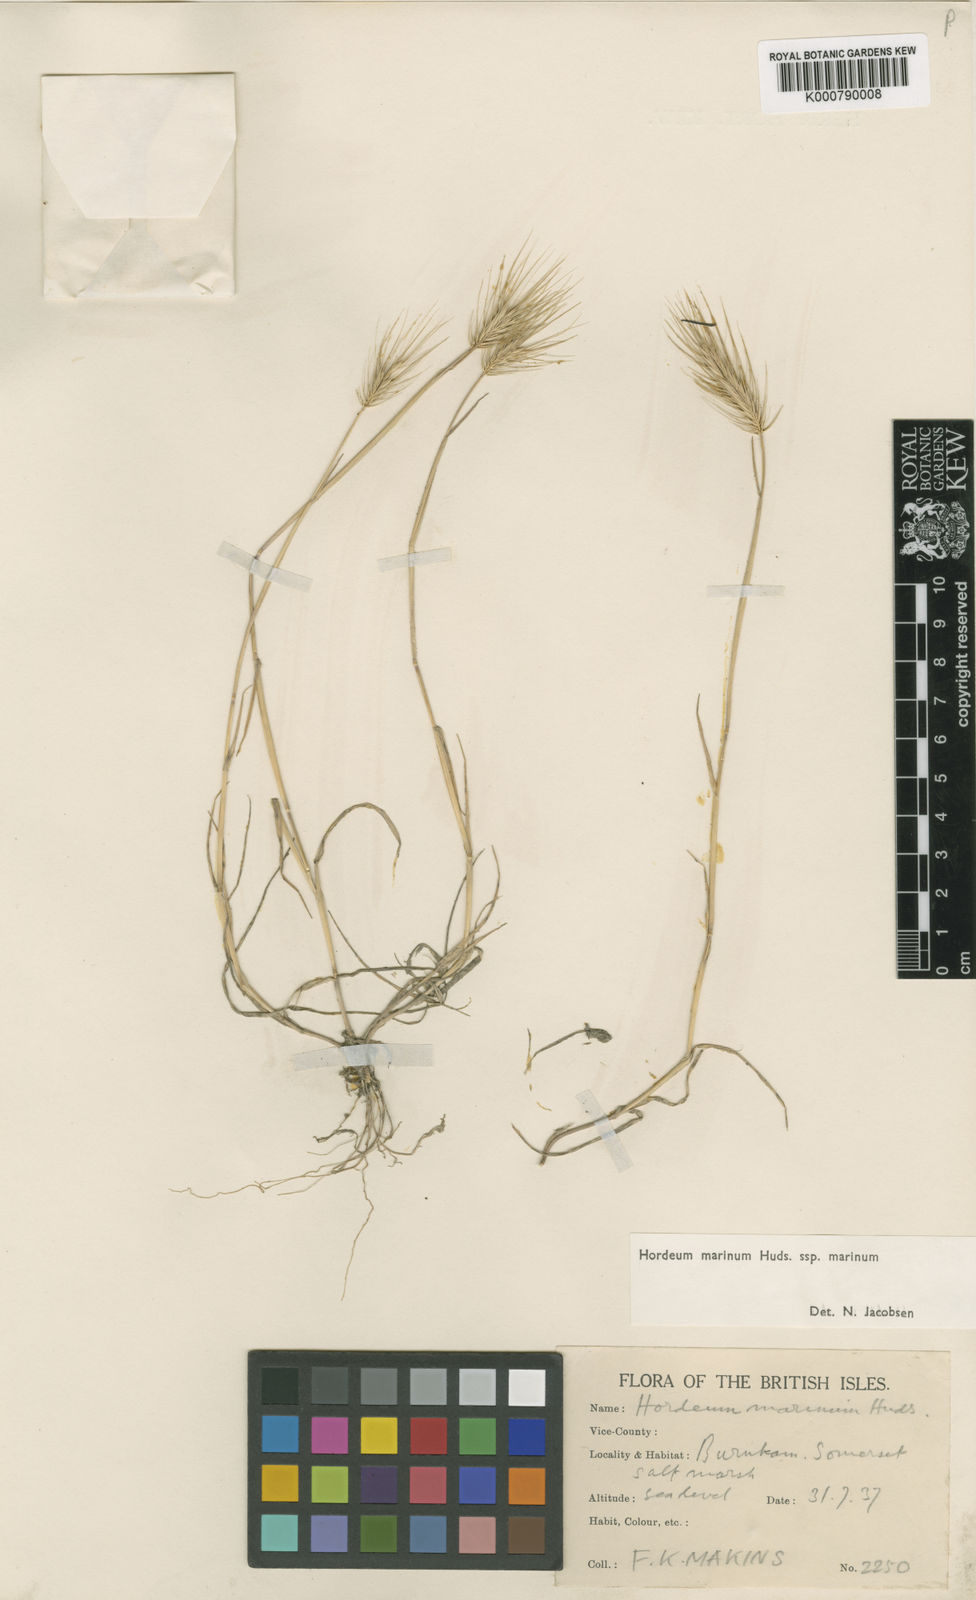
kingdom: Plantae
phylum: Tracheophyta
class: Liliopsida
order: Poales
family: Poaceae
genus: Hordeum
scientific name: Hordeum marinum
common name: Sea barley
